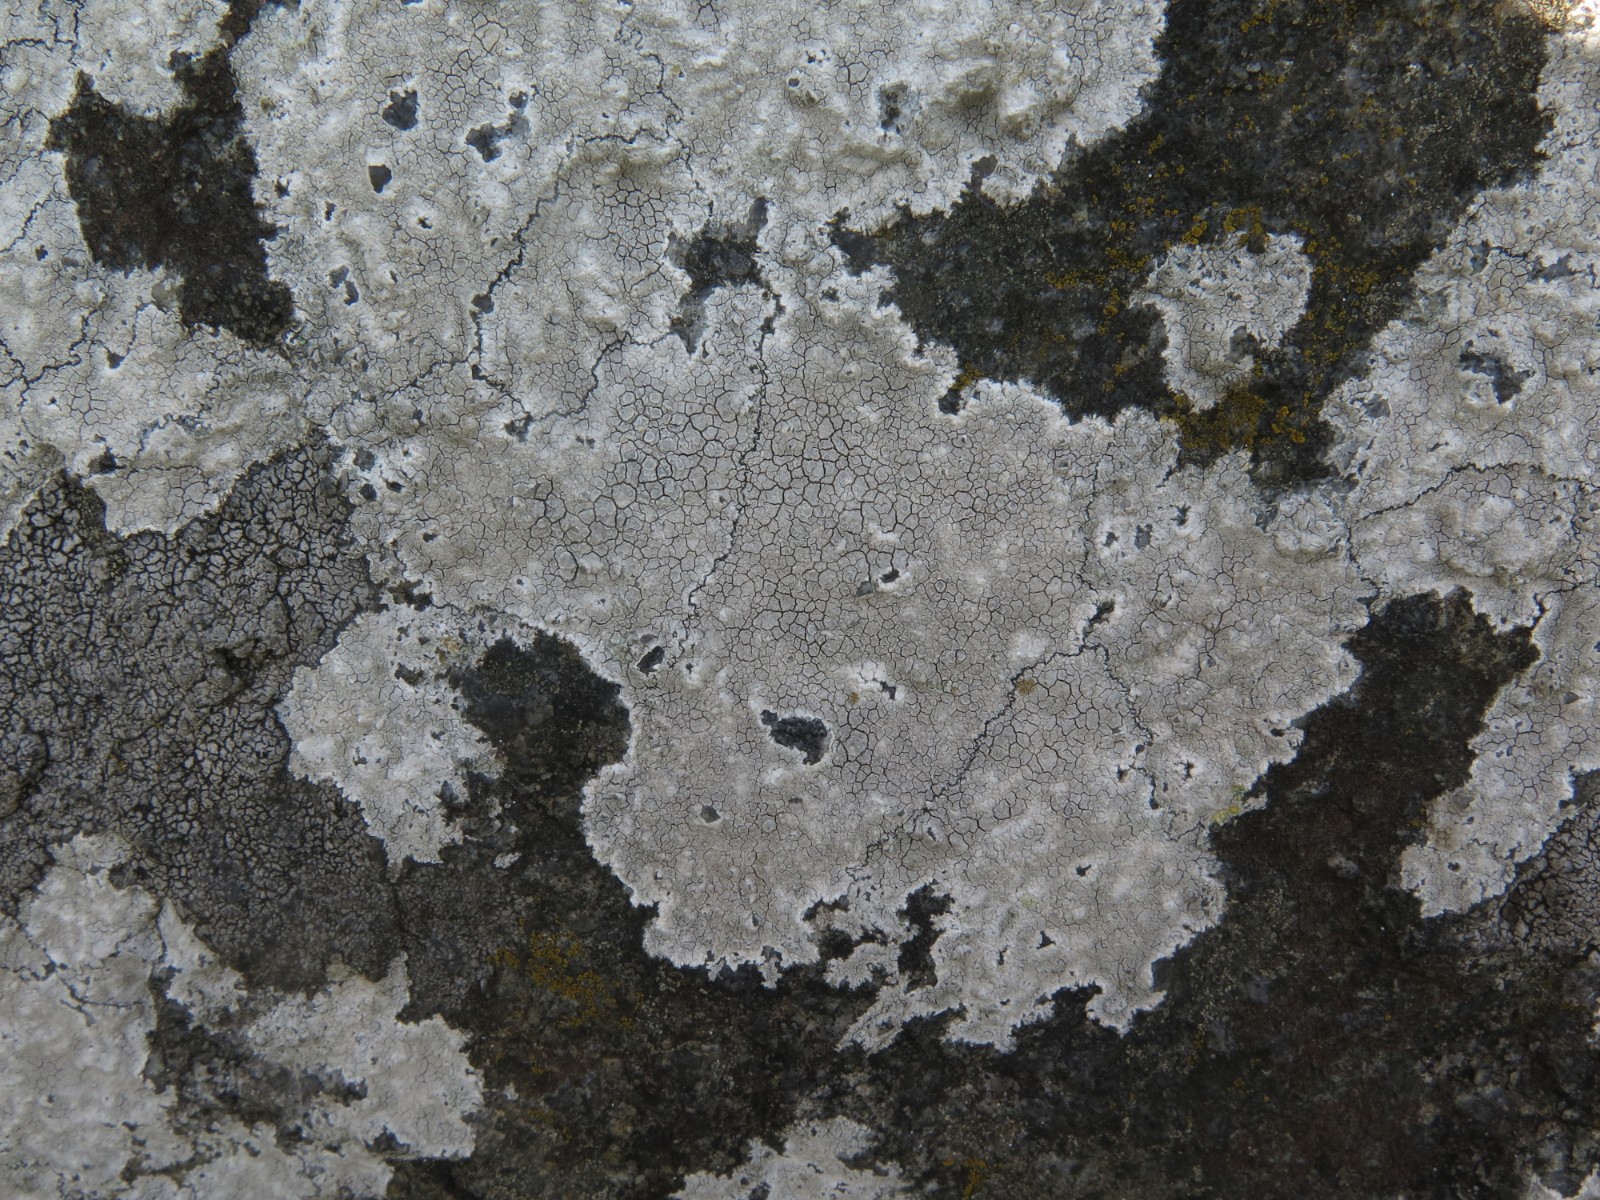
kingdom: Fungi
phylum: Ascomycota
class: Lecanoromycetes
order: Lecanorales
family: Lecanoraceae
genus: Glaucomaria
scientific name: Glaucomaria rupicola
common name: stengærde-kantskivelav
